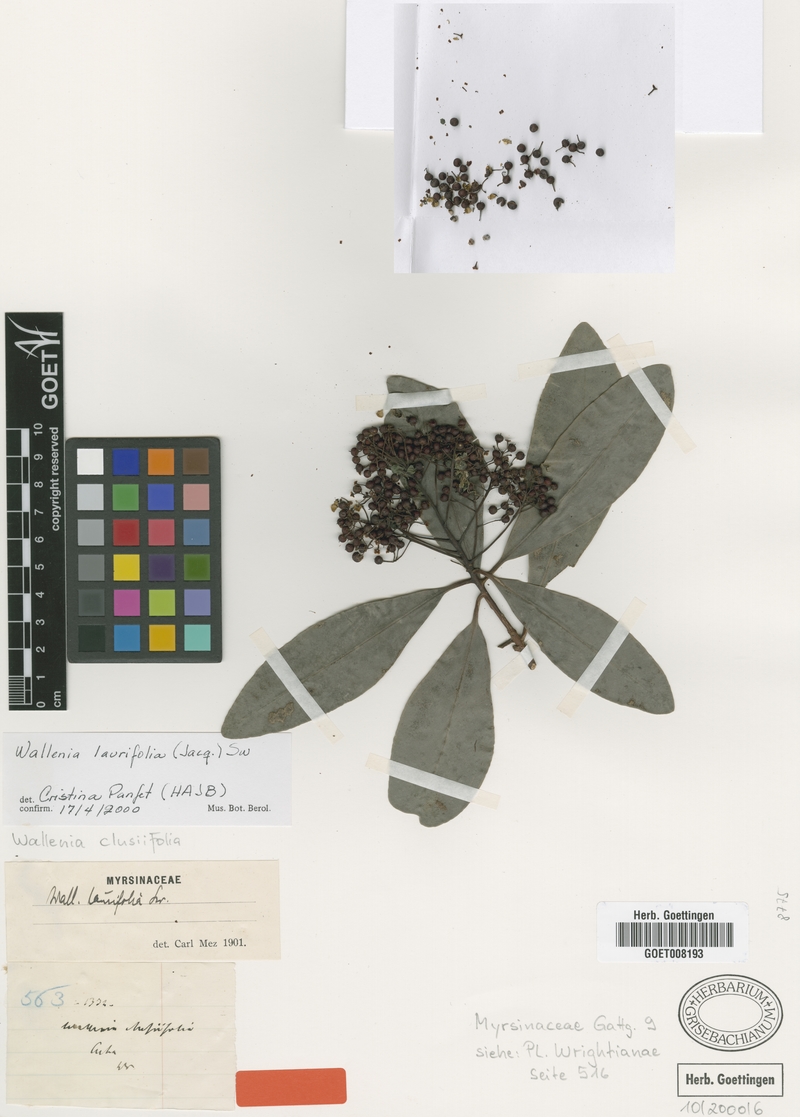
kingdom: Plantae
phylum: Tracheophyta
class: Magnoliopsida
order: Ericales
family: Primulaceae
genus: Wallenia
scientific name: Wallenia laurifolia
